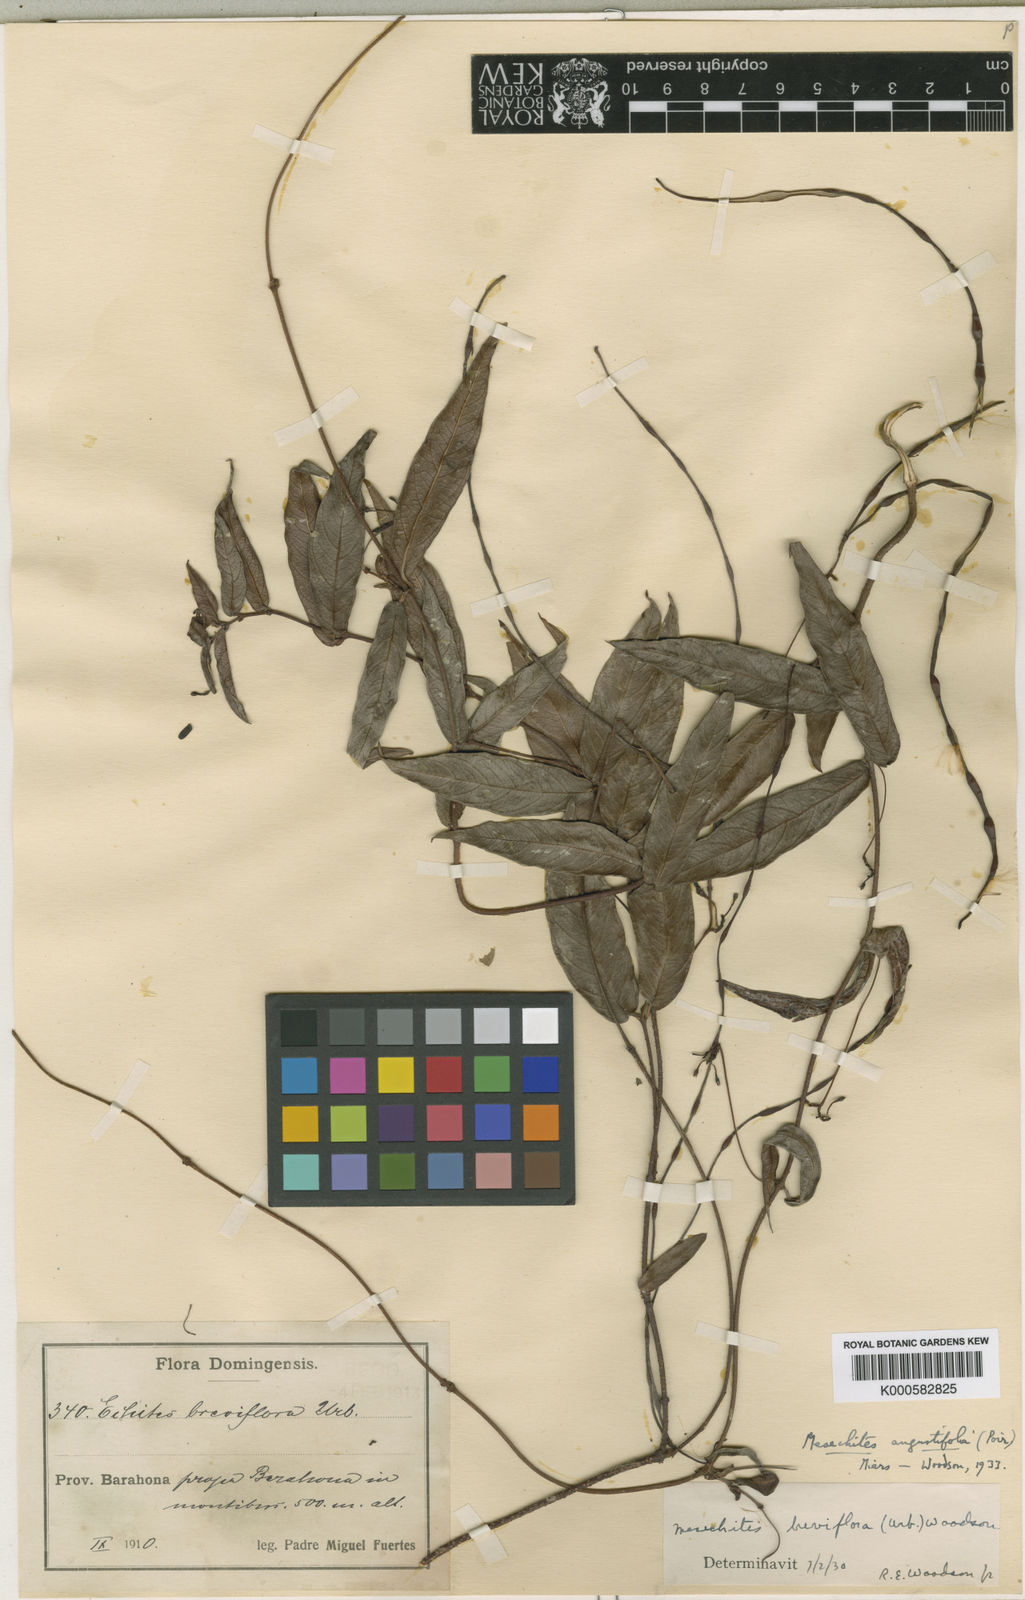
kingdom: Plantae
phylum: Tracheophyta
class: Magnoliopsida
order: Gentianales
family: Apocynaceae
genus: Mesechites
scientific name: Mesechites angustifolius
